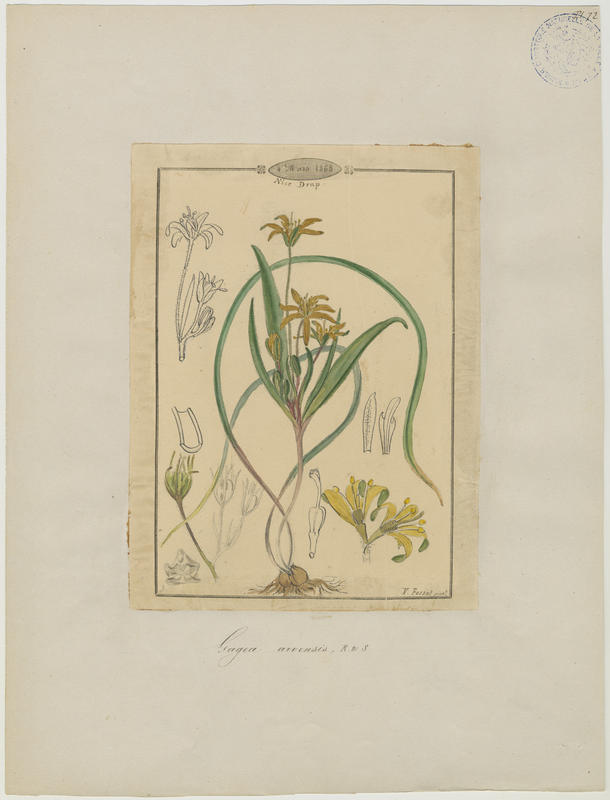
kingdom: Plantae
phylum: Tracheophyta
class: Liliopsida
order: Liliales
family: Liliaceae
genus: Gagea
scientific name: Gagea minima
